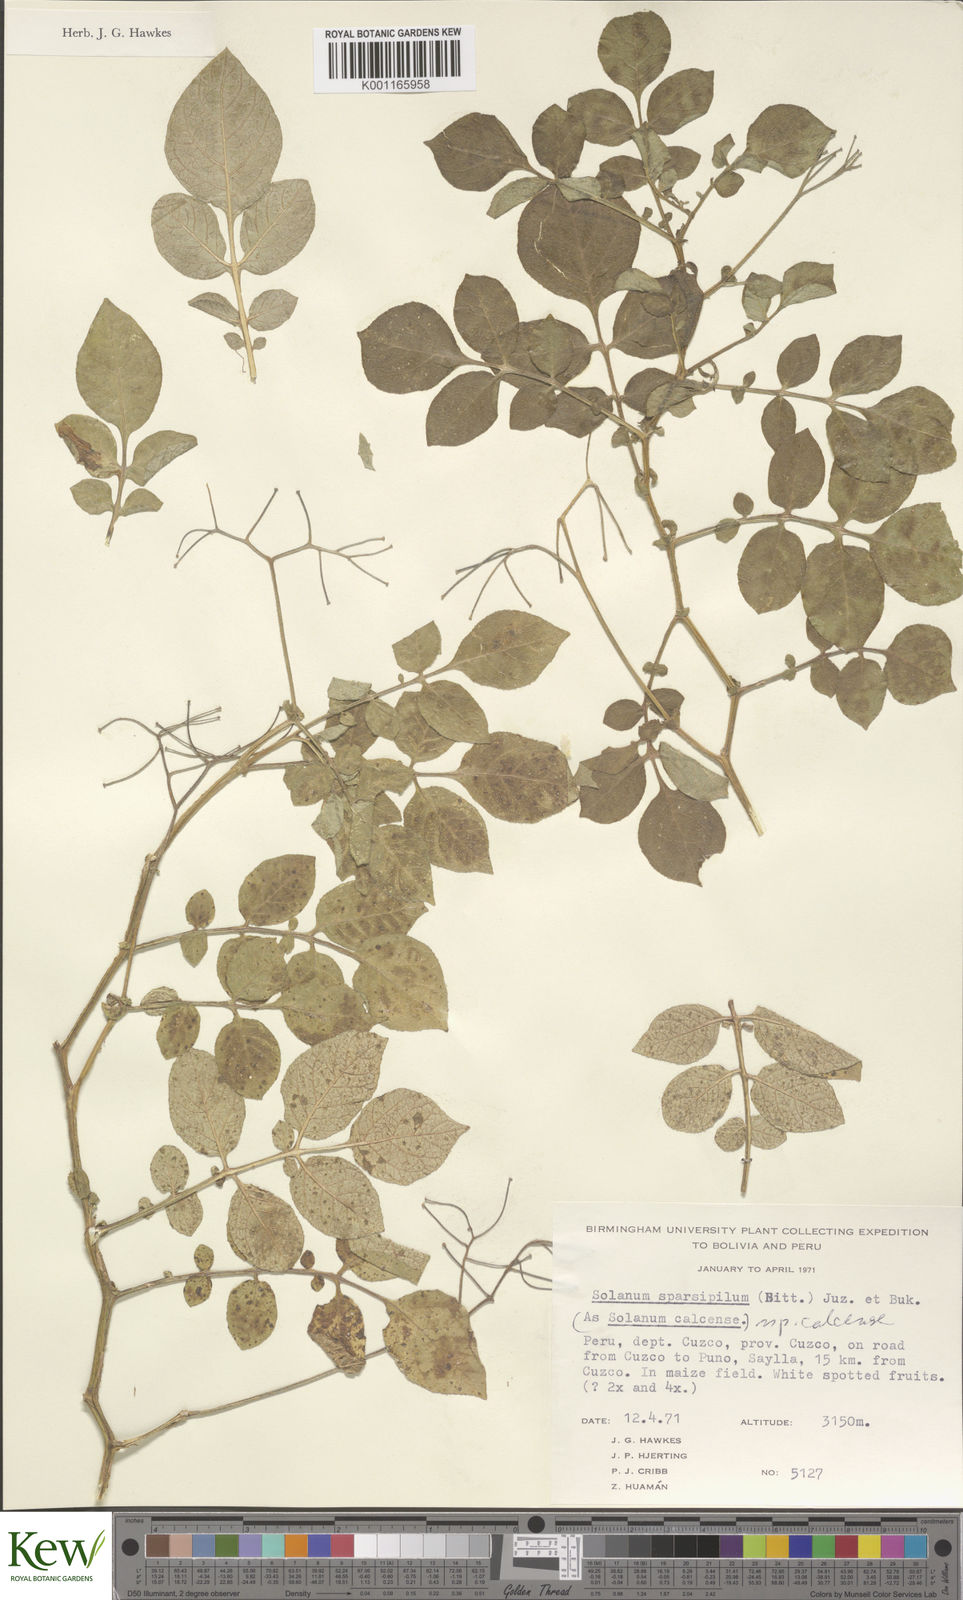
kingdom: Plantae
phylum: Tracheophyta
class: Magnoliopsida
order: Solanales
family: Solanaceae
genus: Solanum
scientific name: Solanum brevicaule
